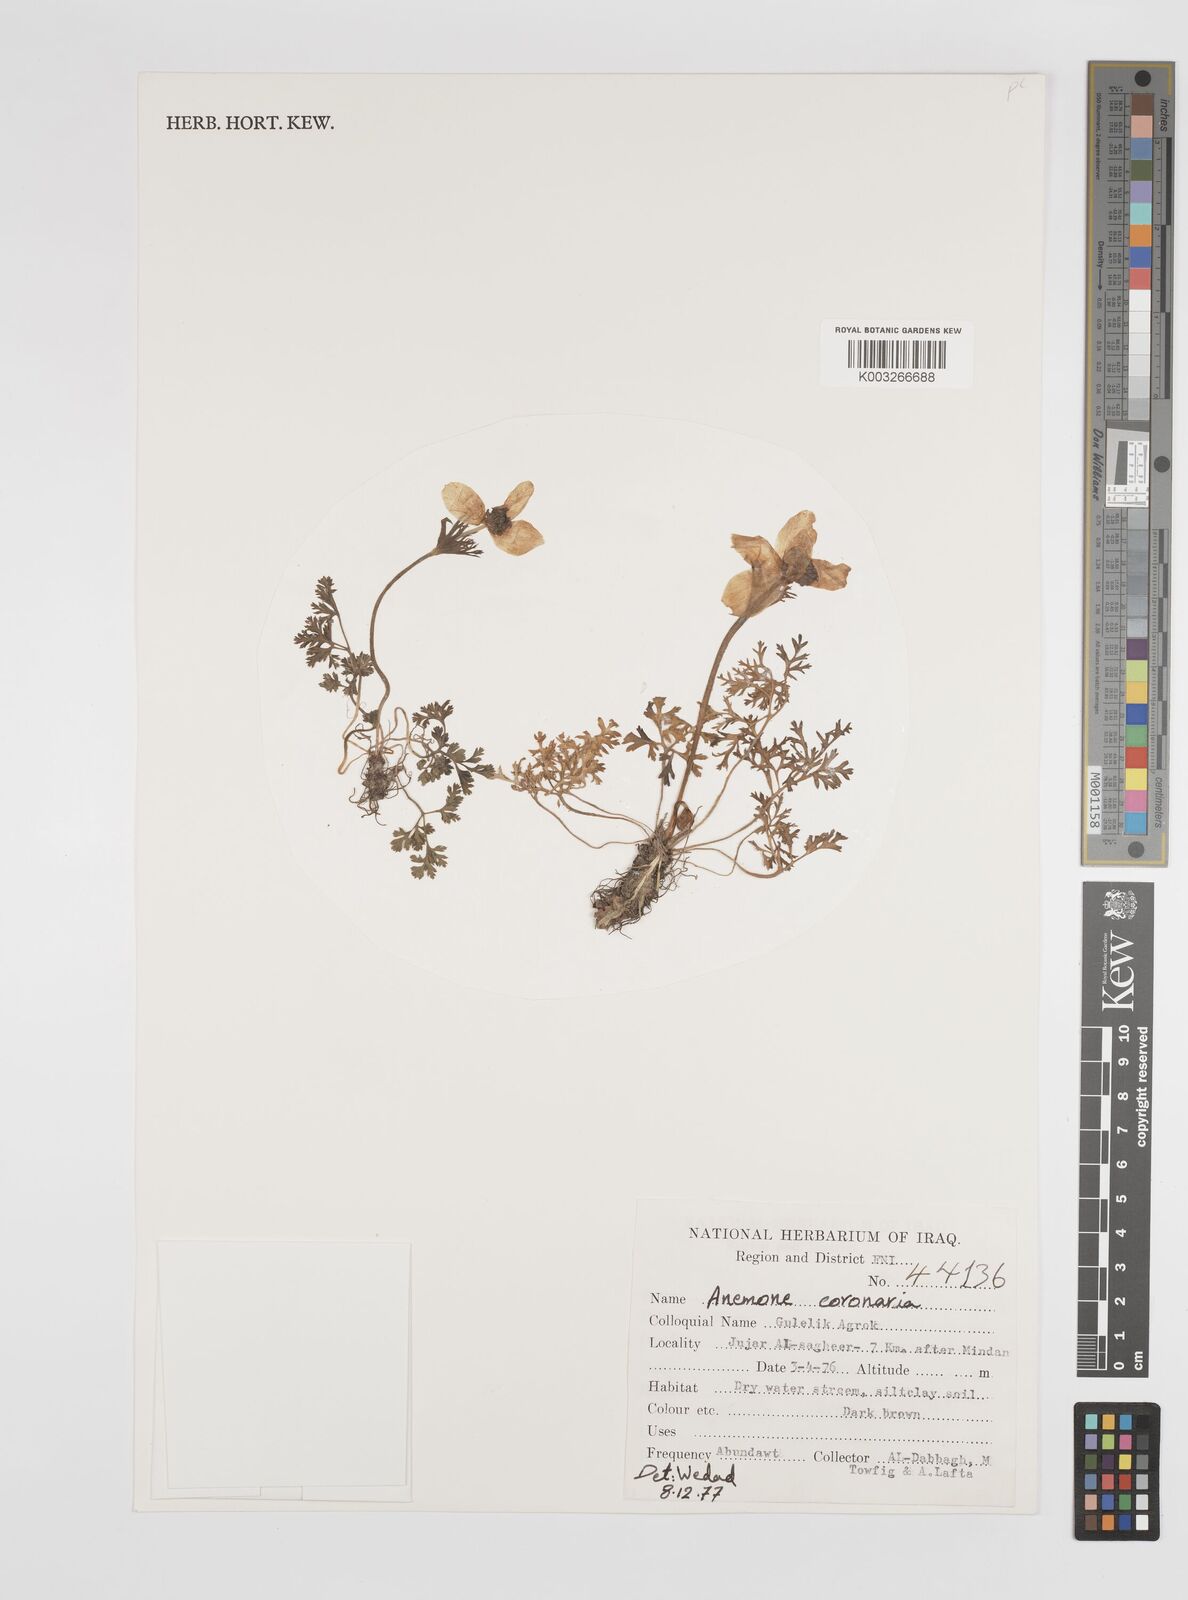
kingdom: Plantae
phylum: Tracheophyta
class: Magnoliopsida
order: Ranunculales
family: Ranunculaceae
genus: Anemone
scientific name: Anemone coronaria
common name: Poppy anemone
